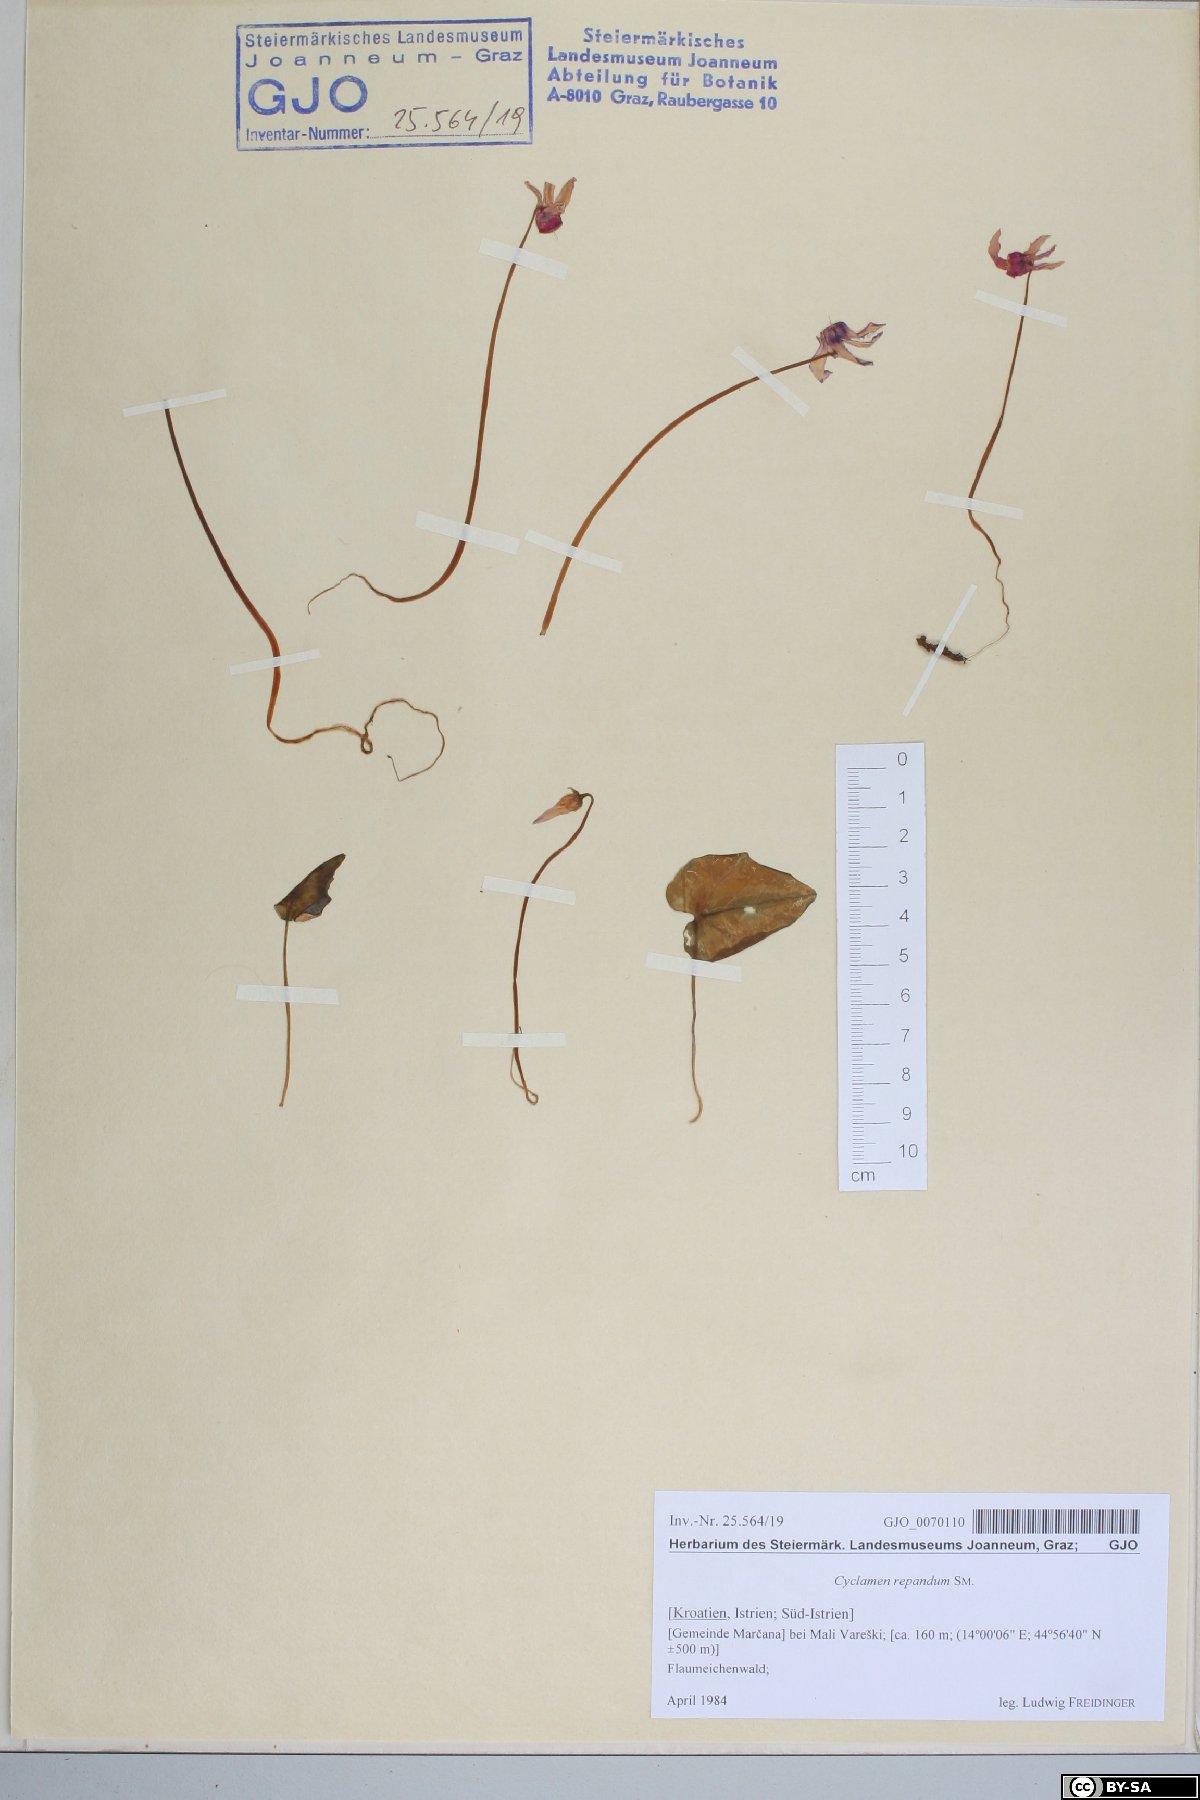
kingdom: Plantae
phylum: Tracheophyta
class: Magnoliopsida
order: Ericales
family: Primulaceae
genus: Cyclamen
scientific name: Cyclamen repandum
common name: Spring sowbread
